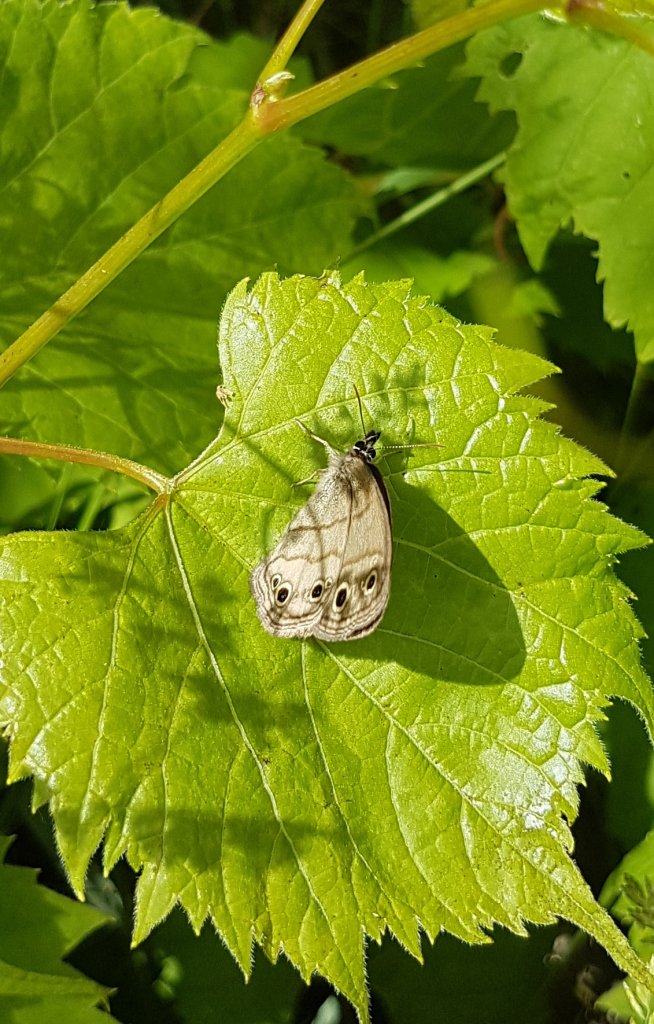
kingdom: Animalia
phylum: Arthropoda
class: Insecta
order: Lepidoptera
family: Nymphalidae
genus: Euptychia
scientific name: Euptychia cymela
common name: Little Wood Satyr
